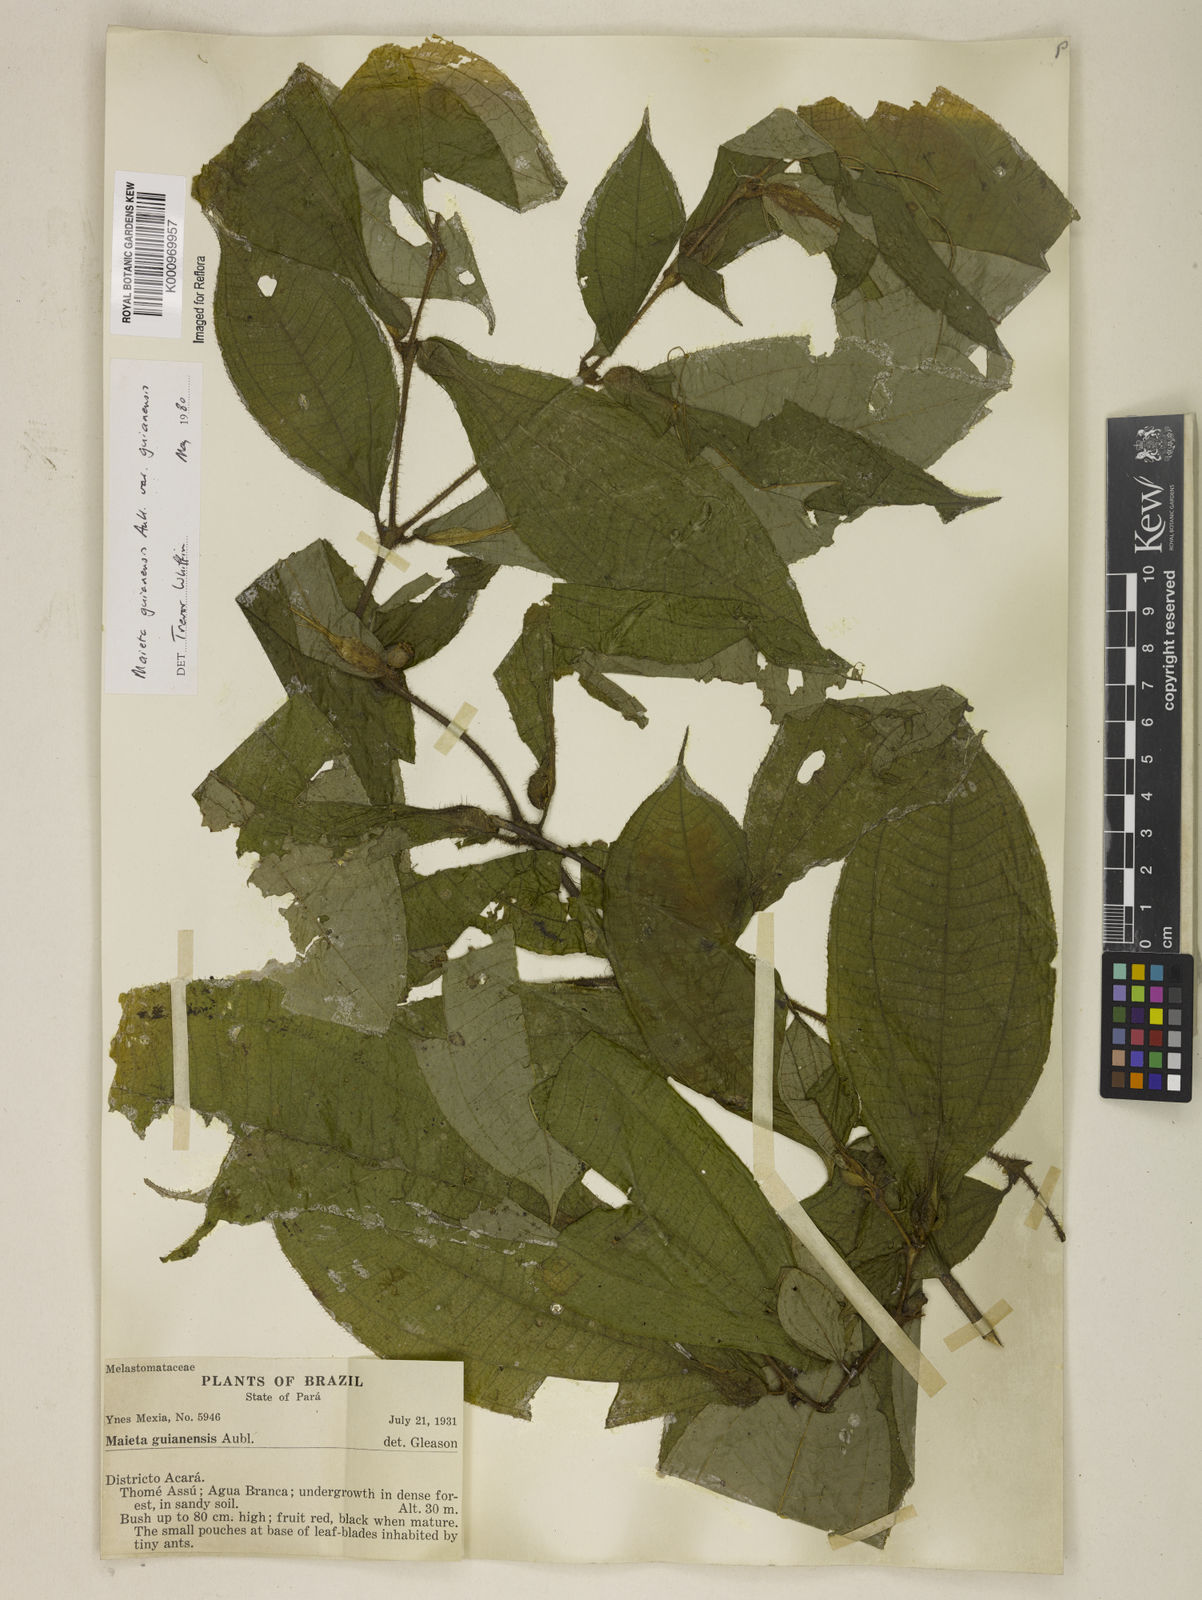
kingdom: Plantae
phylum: Tracheophyta
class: Magnoliopsida
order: Myrtales
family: Melastomataceae
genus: Miconia
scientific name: Miconia mayeta
